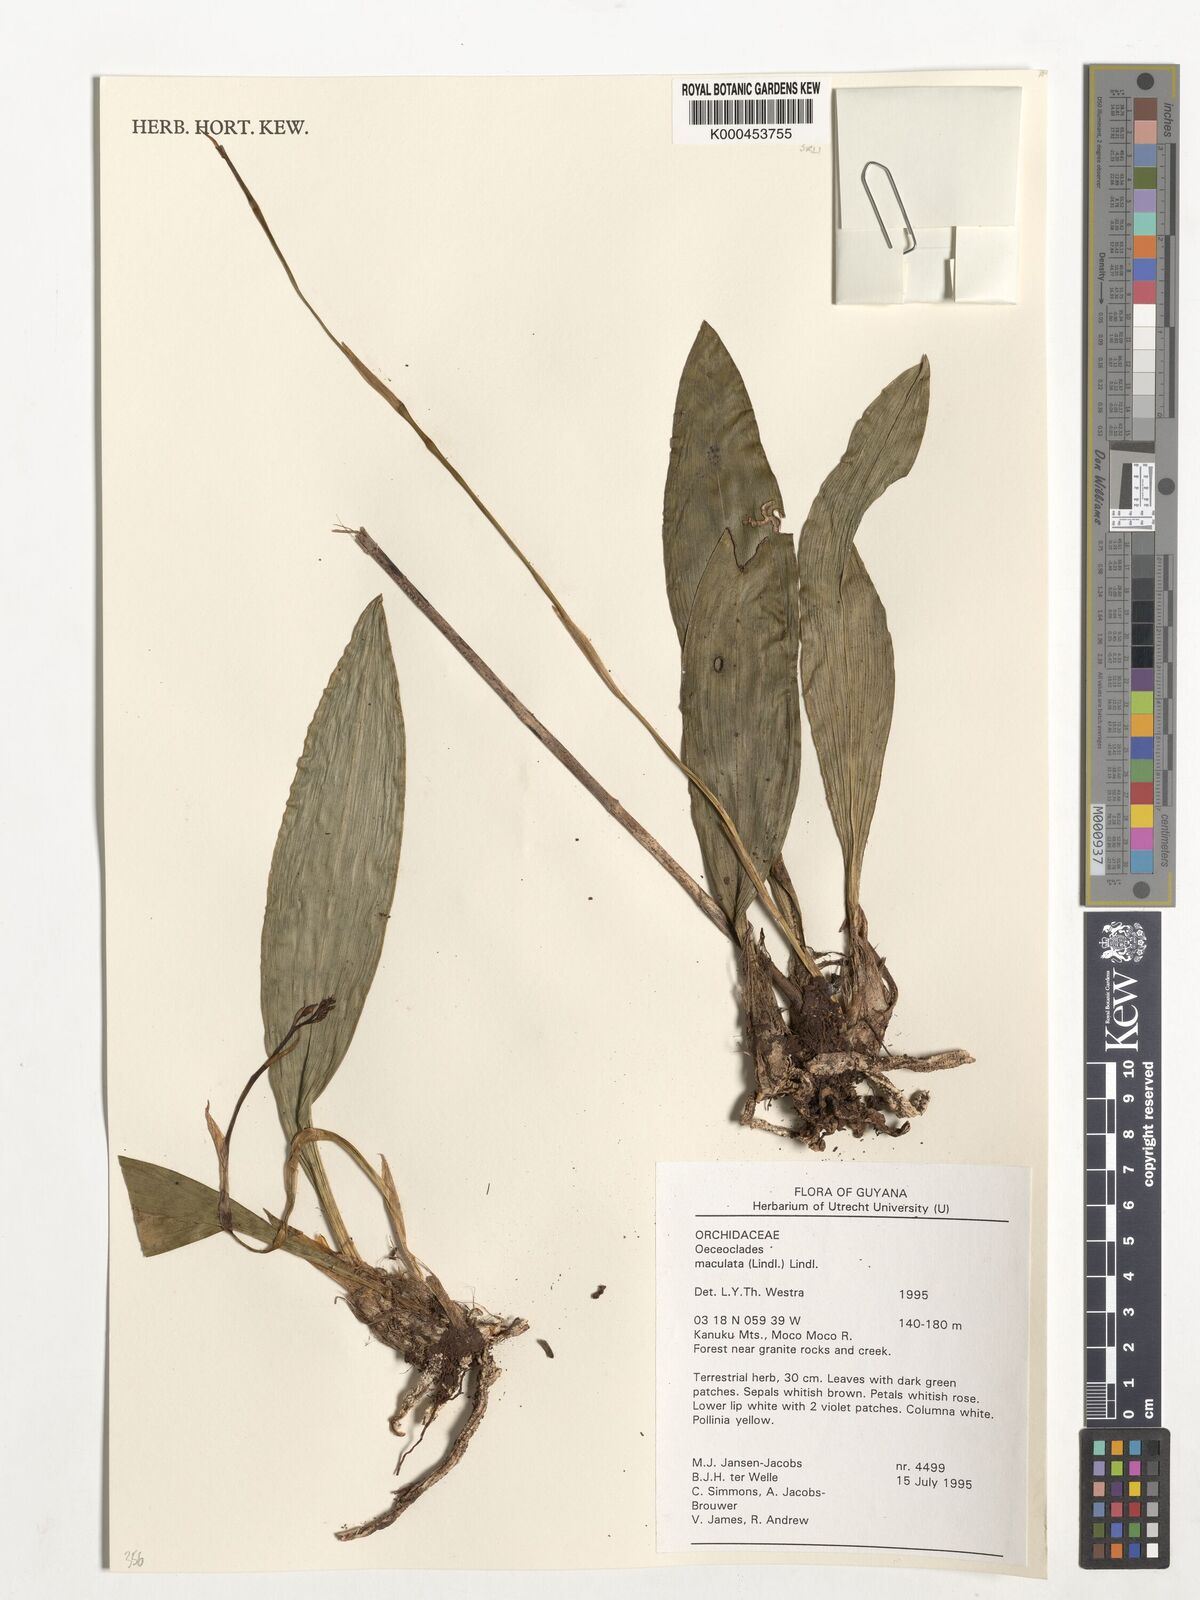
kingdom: Plantae
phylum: Tracheophyta
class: Liliopsida
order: Asparagales
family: Orchidaceae
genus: Eulophia
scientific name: Eulophia maculata
